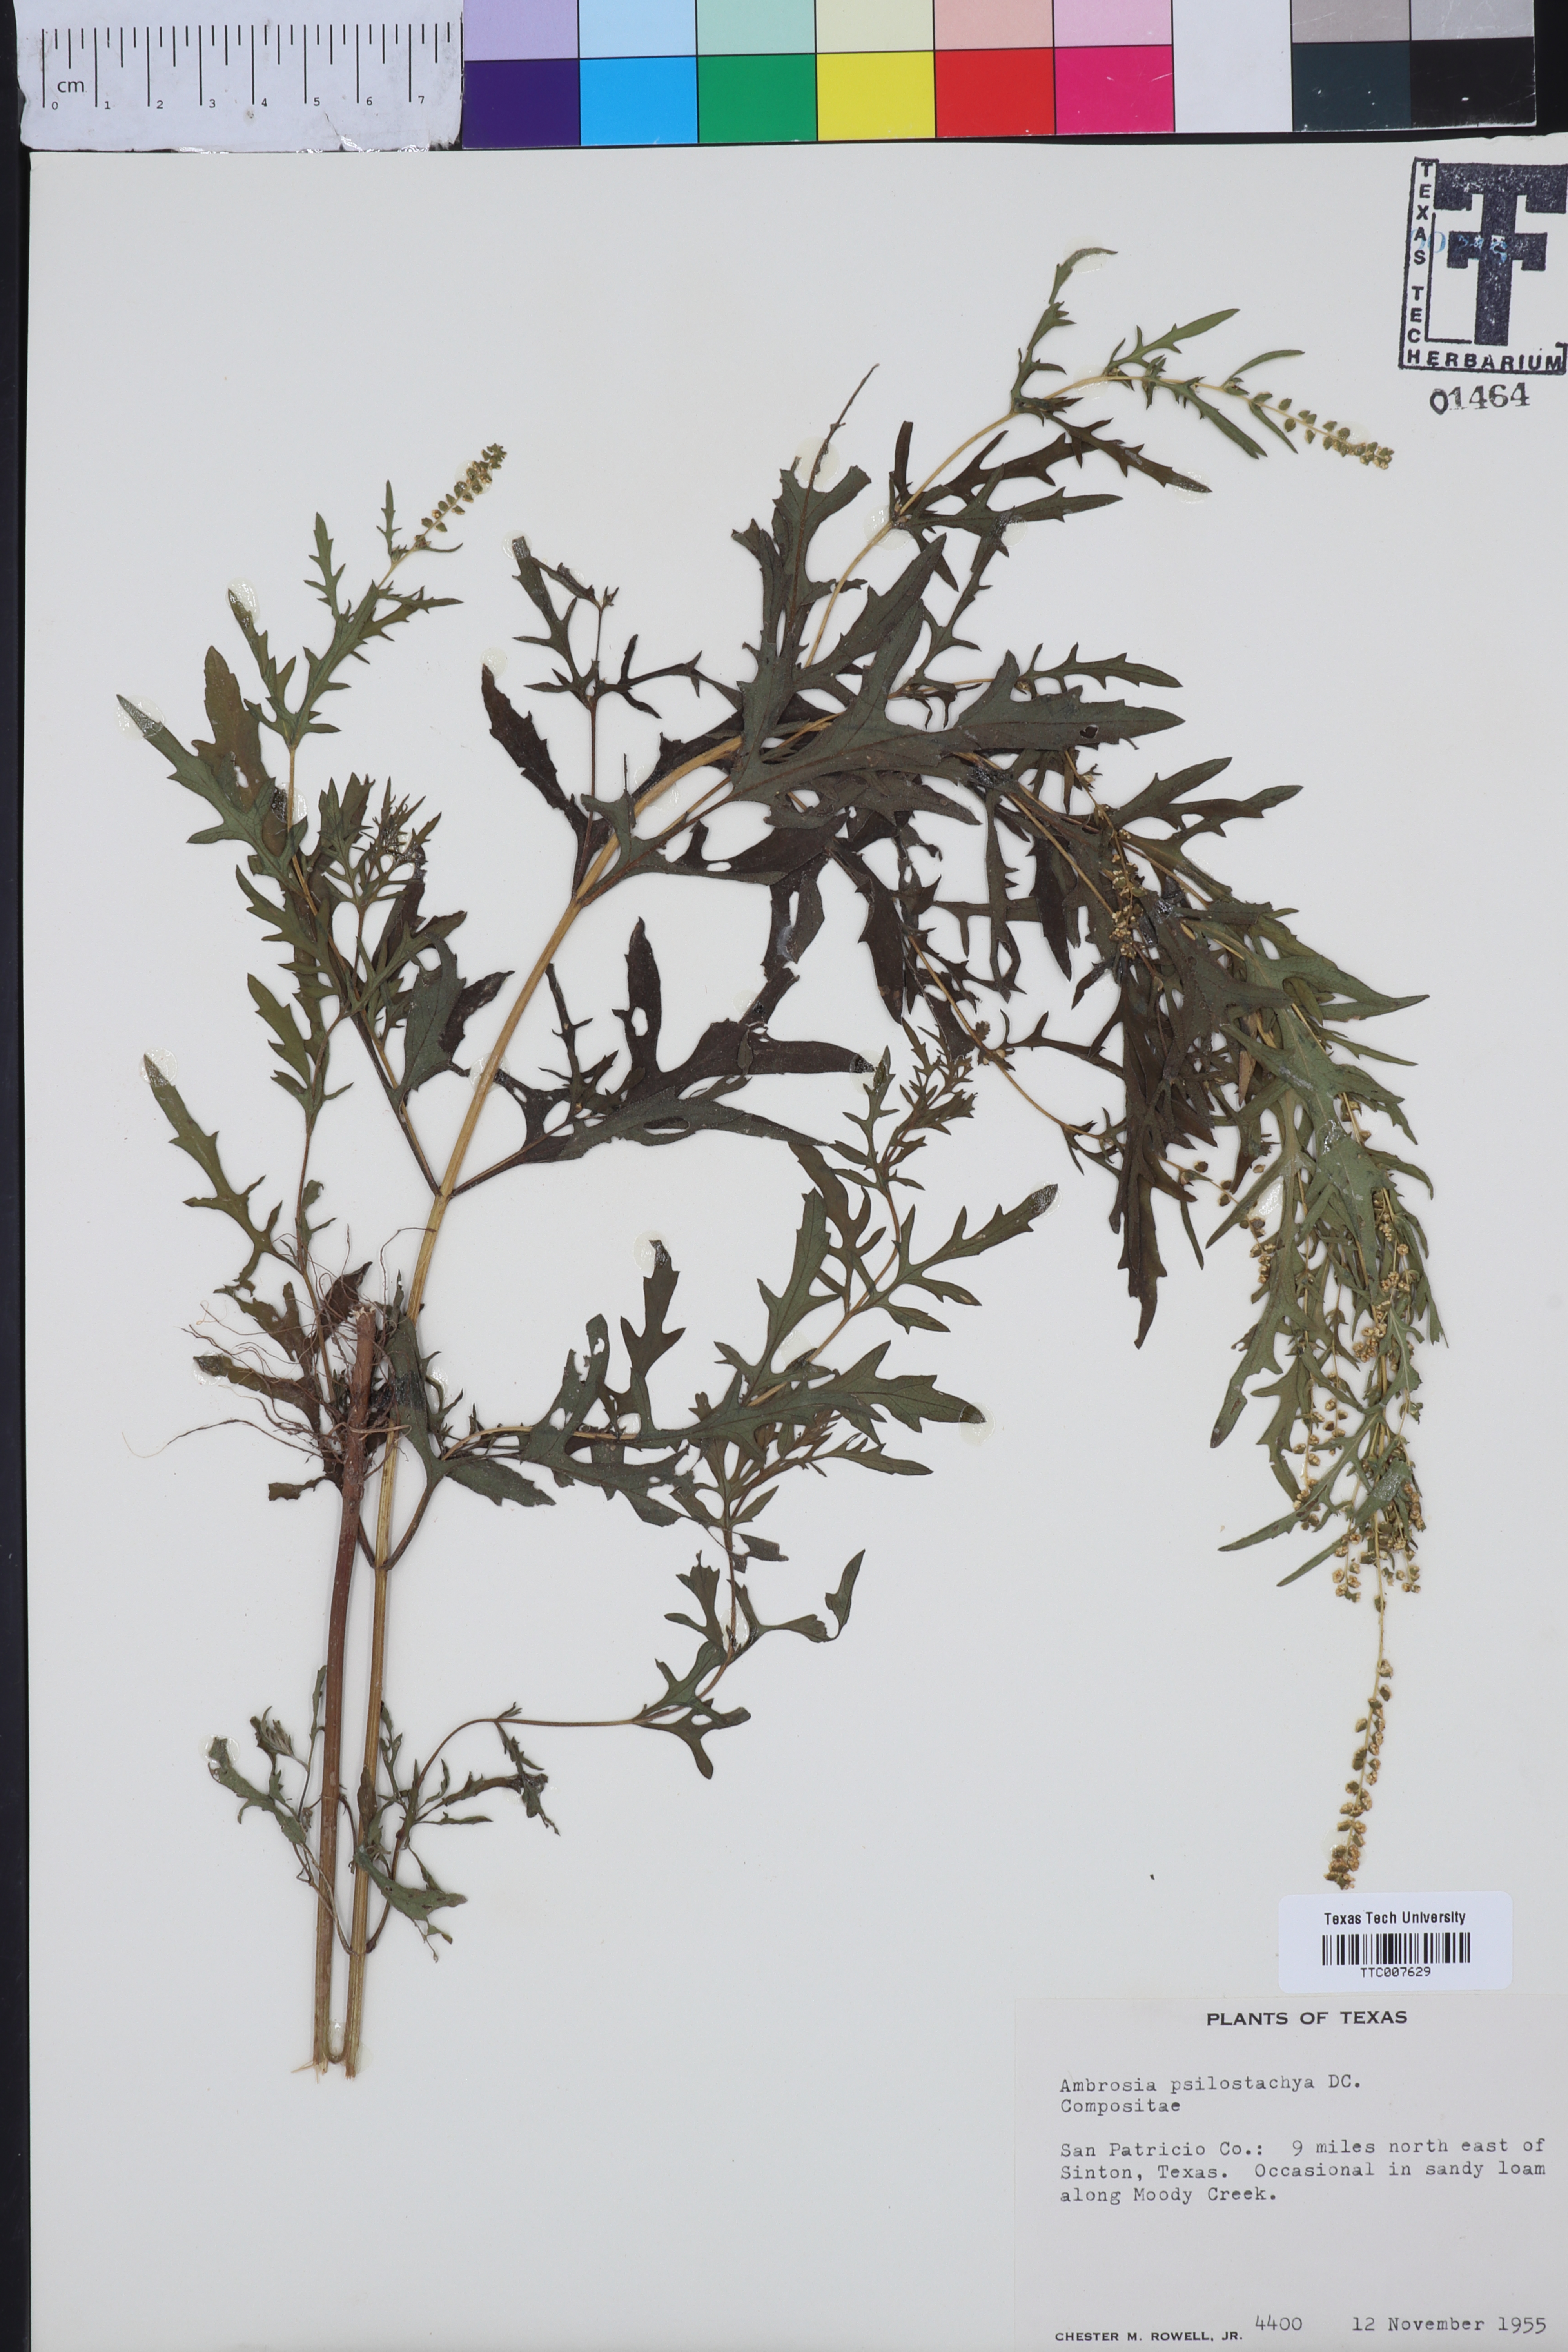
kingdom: Plantae
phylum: Tracheophyta
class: Magnoliopsida
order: Asterales
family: Asteraceae
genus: Ambrosia
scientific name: Ambrosia psilostachya
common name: Perennial ragweed
